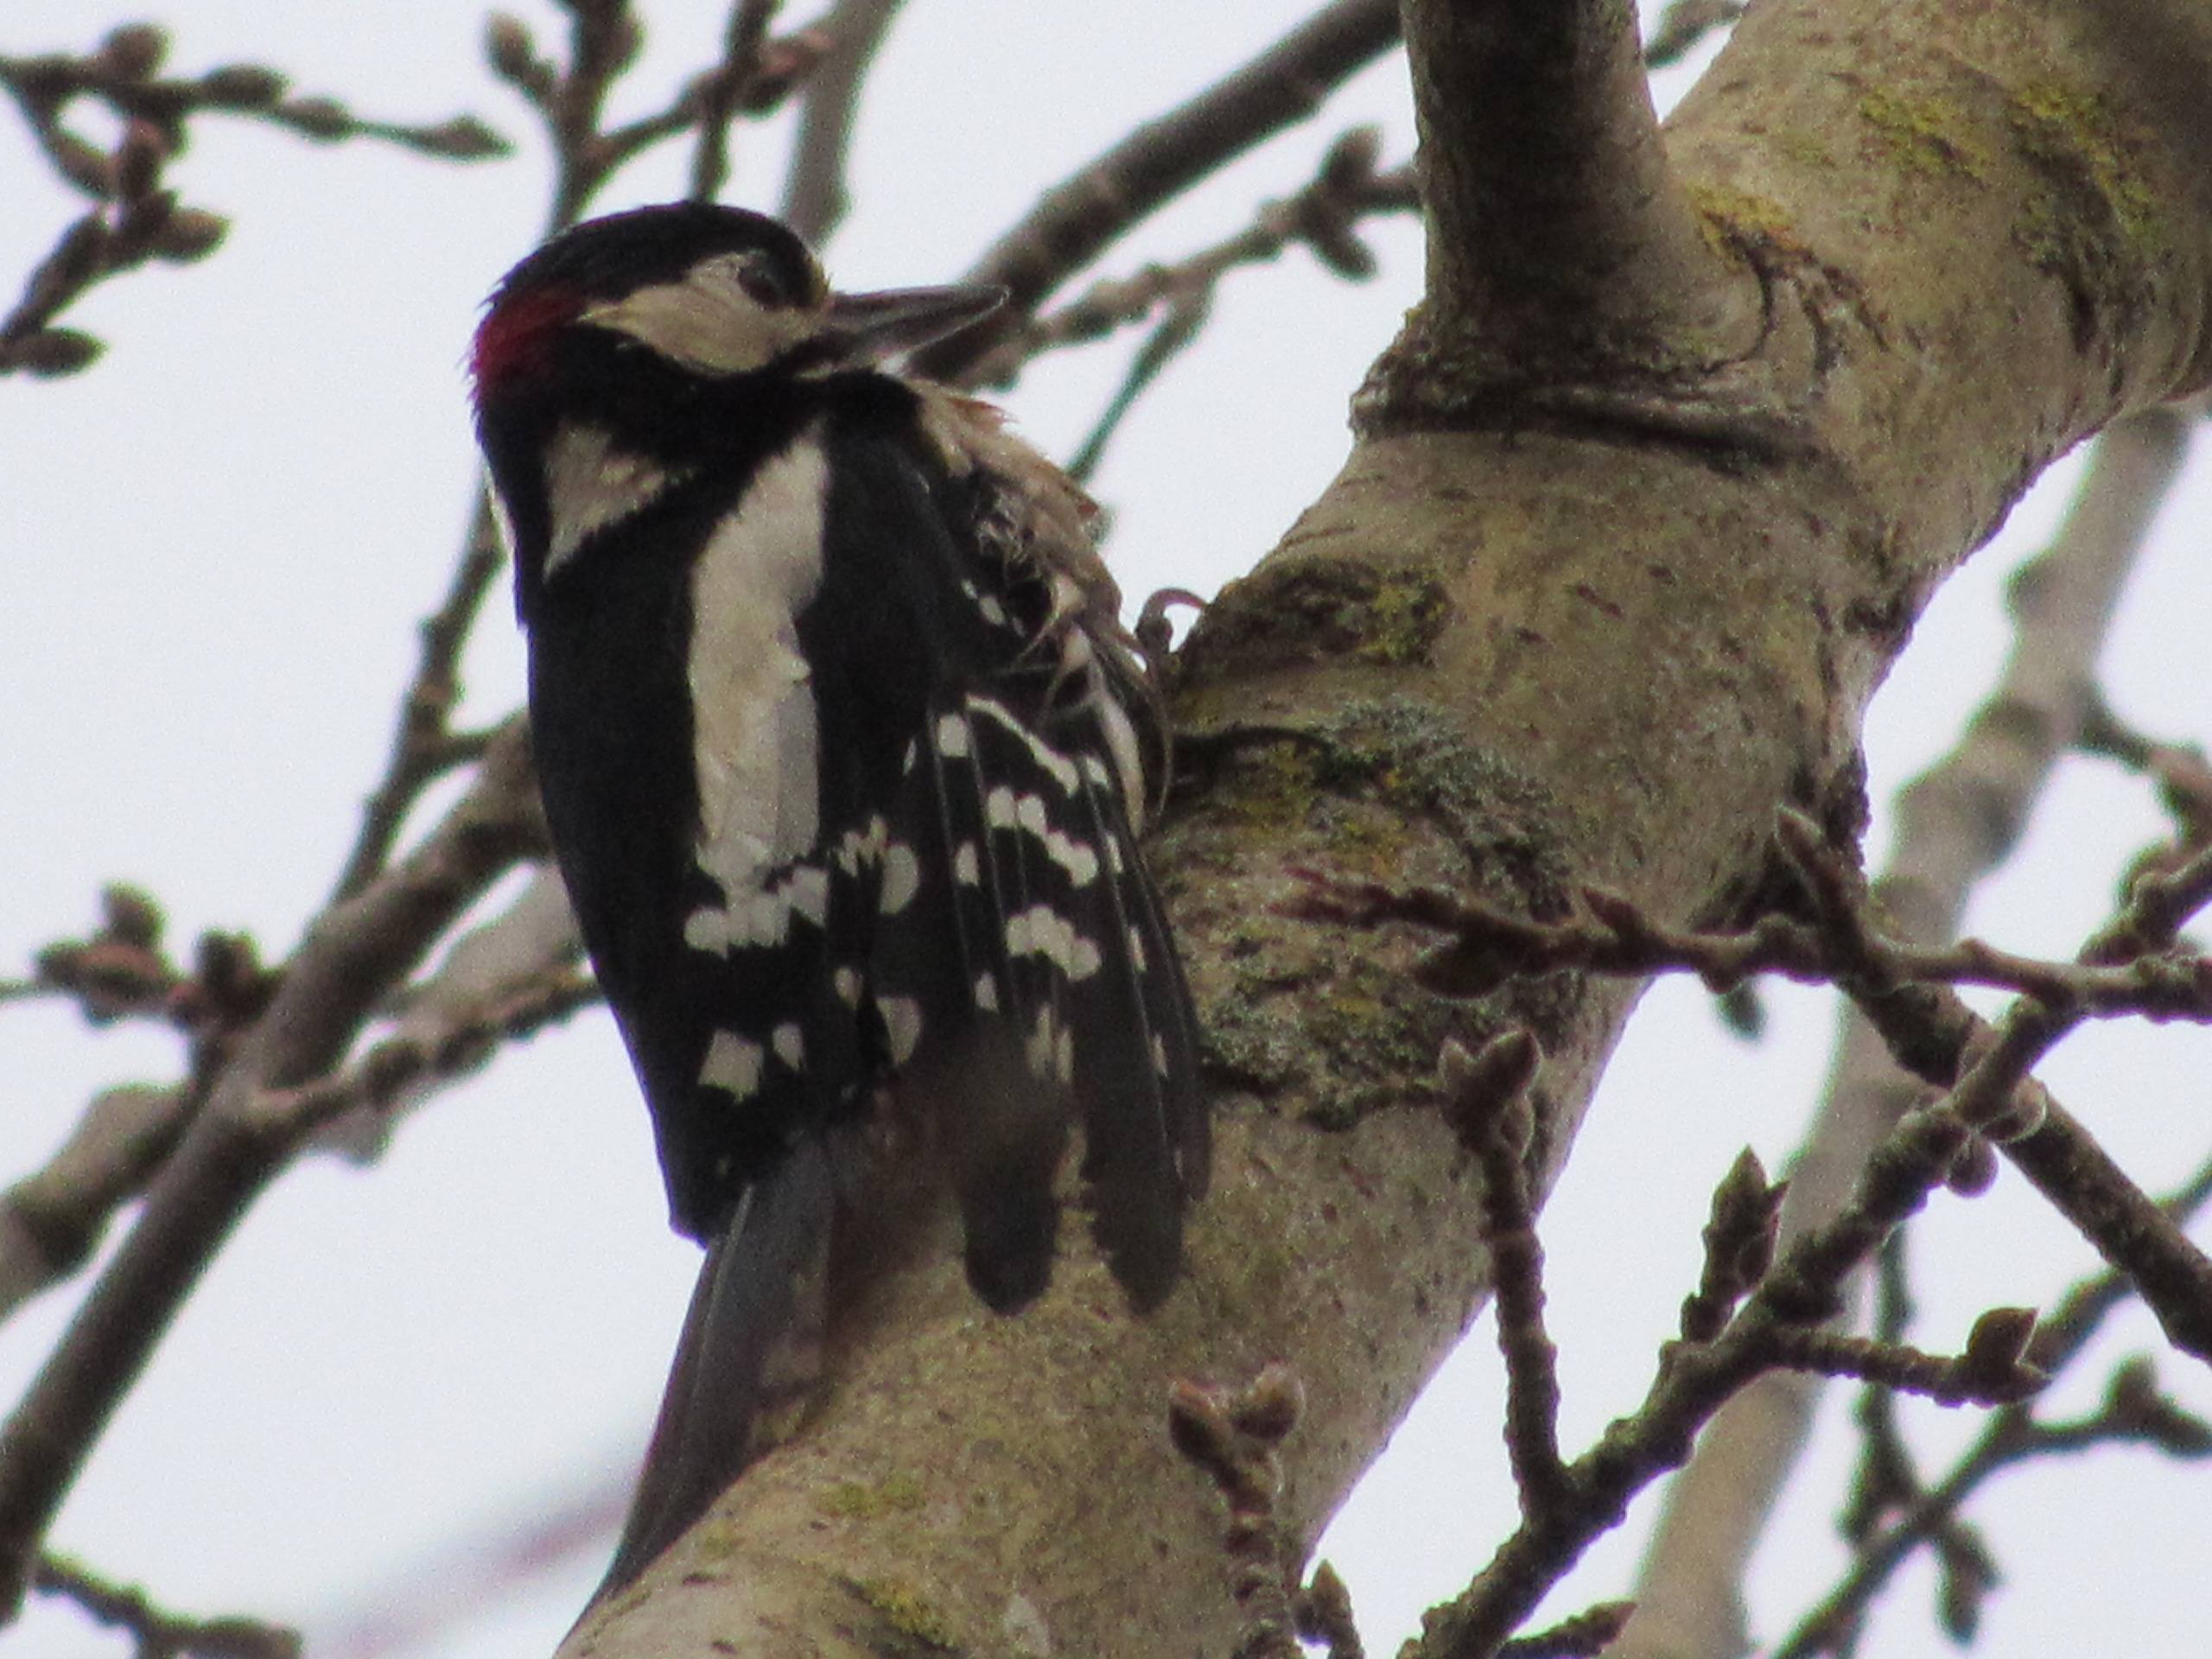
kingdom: Animalia
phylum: Chordata
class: Aves
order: Piciformes
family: Picidae
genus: Dendrocopos
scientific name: Dendrocopos major
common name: Stor flagspætte
